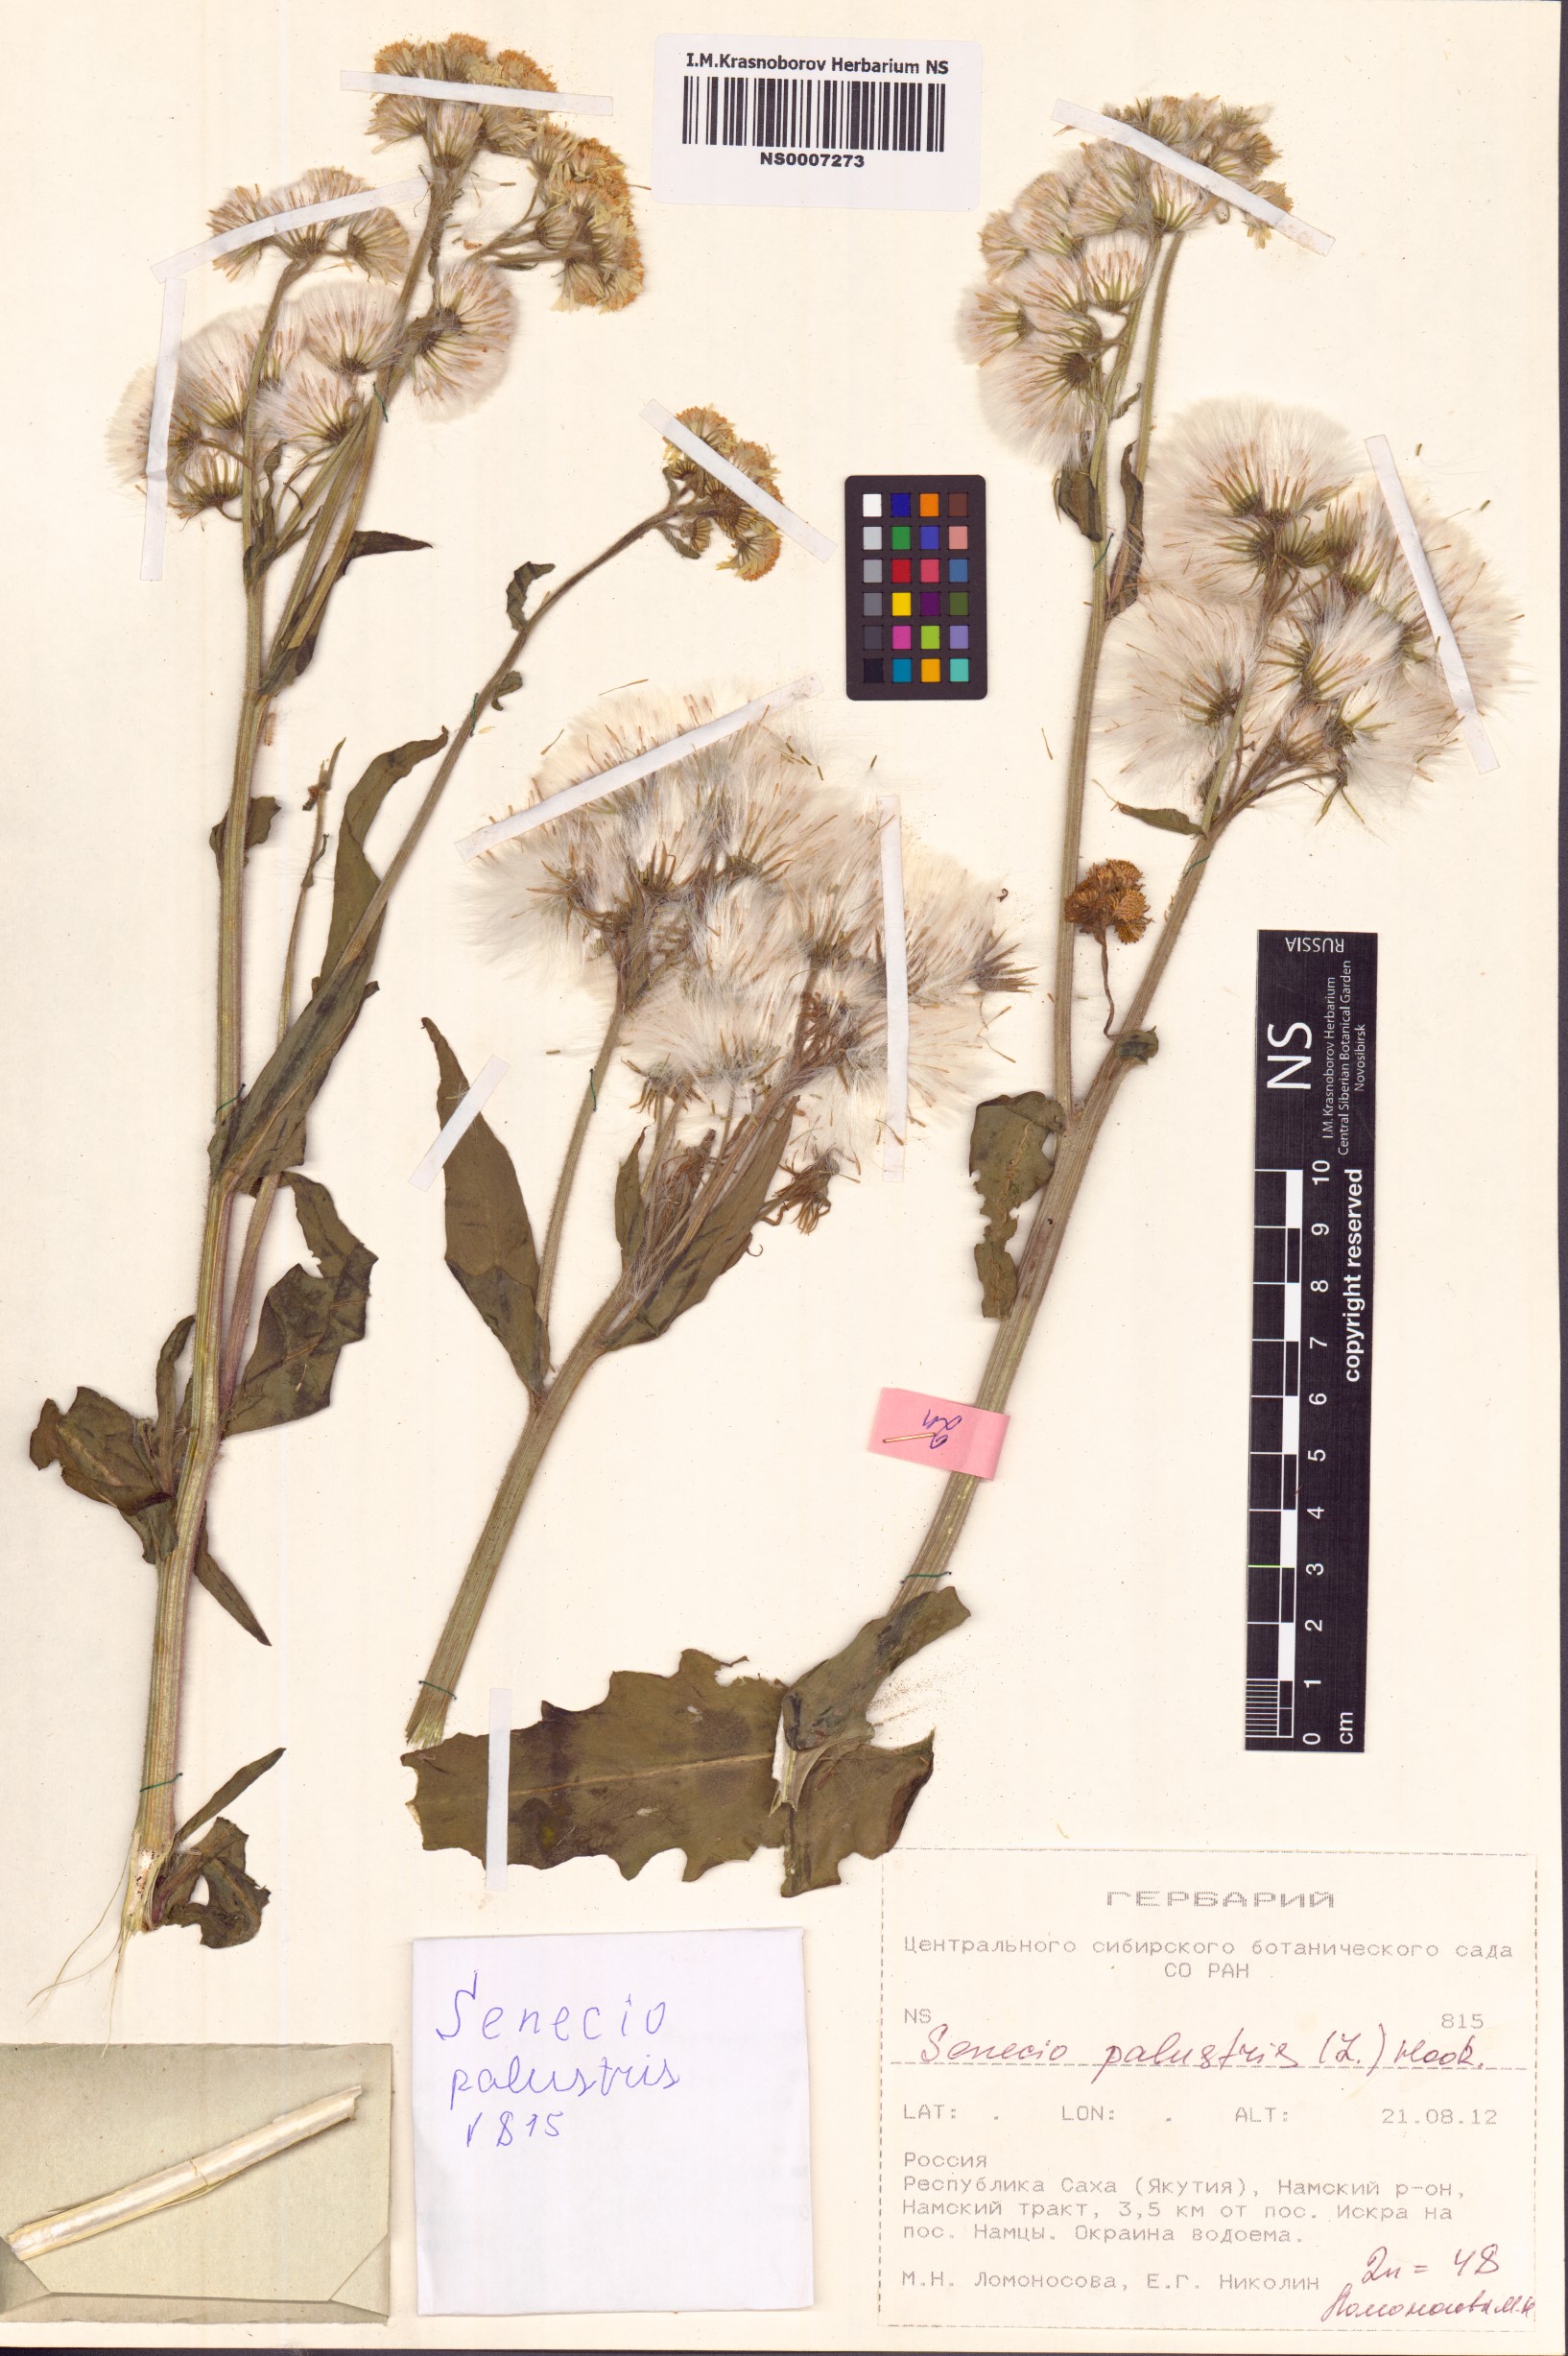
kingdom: Plantae
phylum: Tracheophyta
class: Magnoliopsida
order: Asterales
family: Asteraceae
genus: Tephroseris
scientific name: Tephroseris palustris
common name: Marsh fleawort
